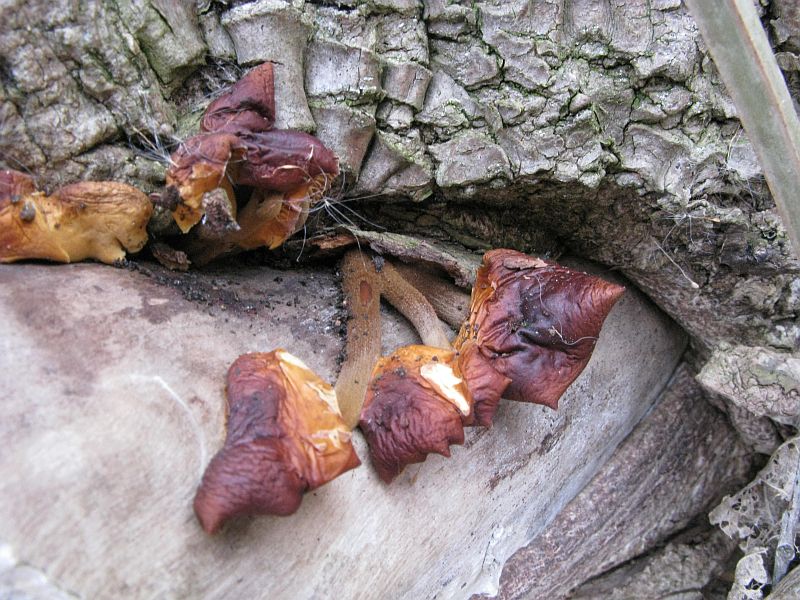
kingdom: Fungi
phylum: Basidiomycota
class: Agaricomycetes
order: Agaricales
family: Physalacriaceae
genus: Flammulina
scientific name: Flammulina velutipes
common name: gul fløjlsfod
